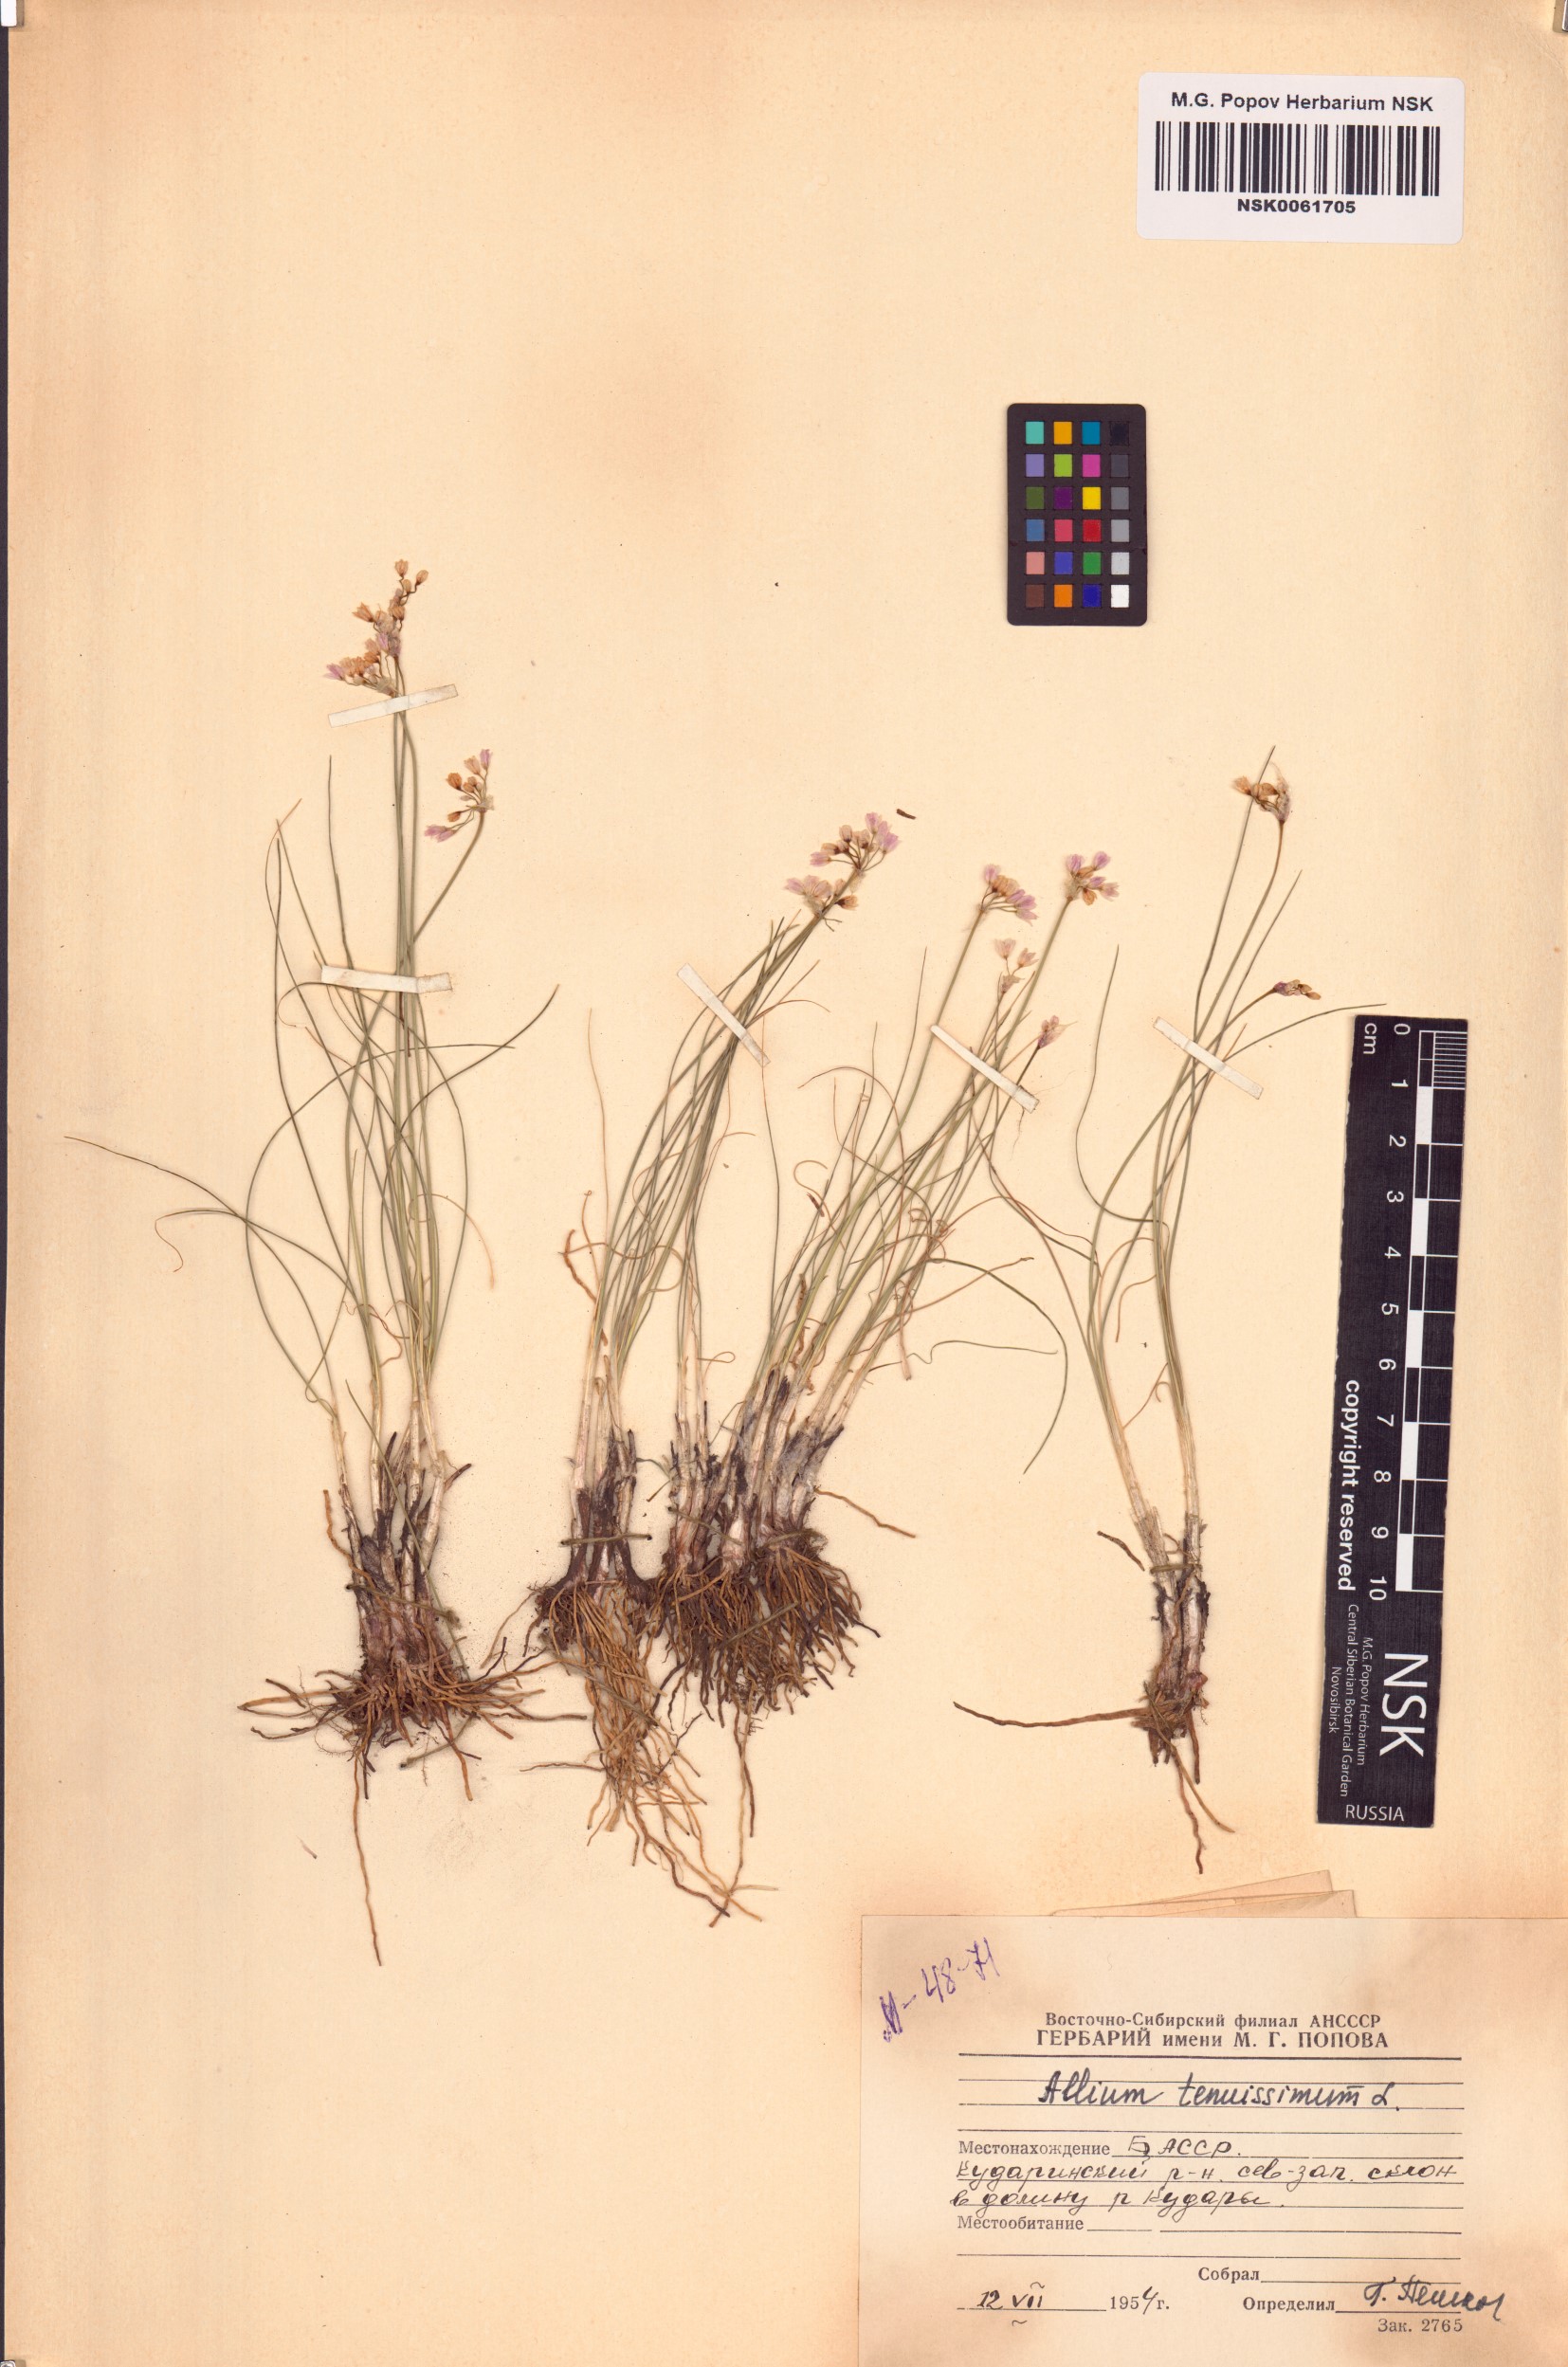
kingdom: Plantae
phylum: Tracheophyta
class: Liliopsida
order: Asparagales
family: Amaryllidaceae
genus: Allium
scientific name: Allium tenuissimum
